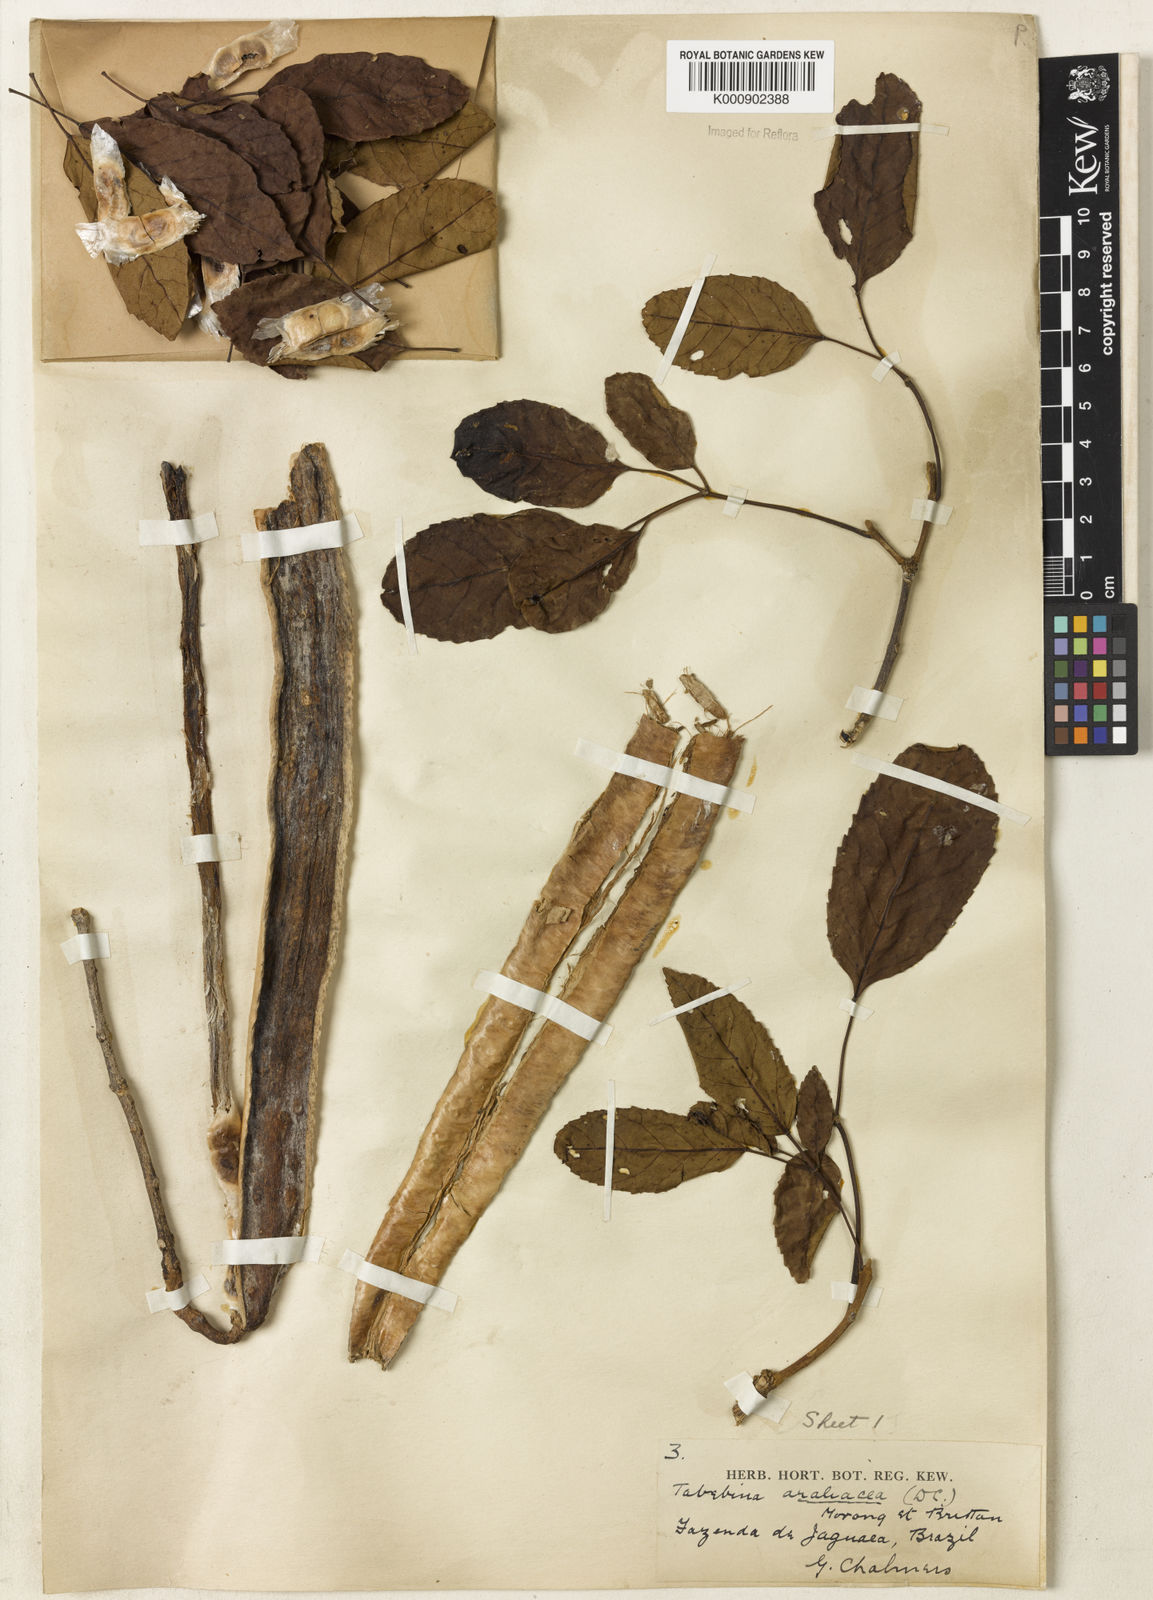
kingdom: Plantae
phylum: Tracheophyta
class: Magnoliopsida
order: Lamiales
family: Bignoniaceae
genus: Handroanthus
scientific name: Handroanthus serratifolius
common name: Yellow ipe
